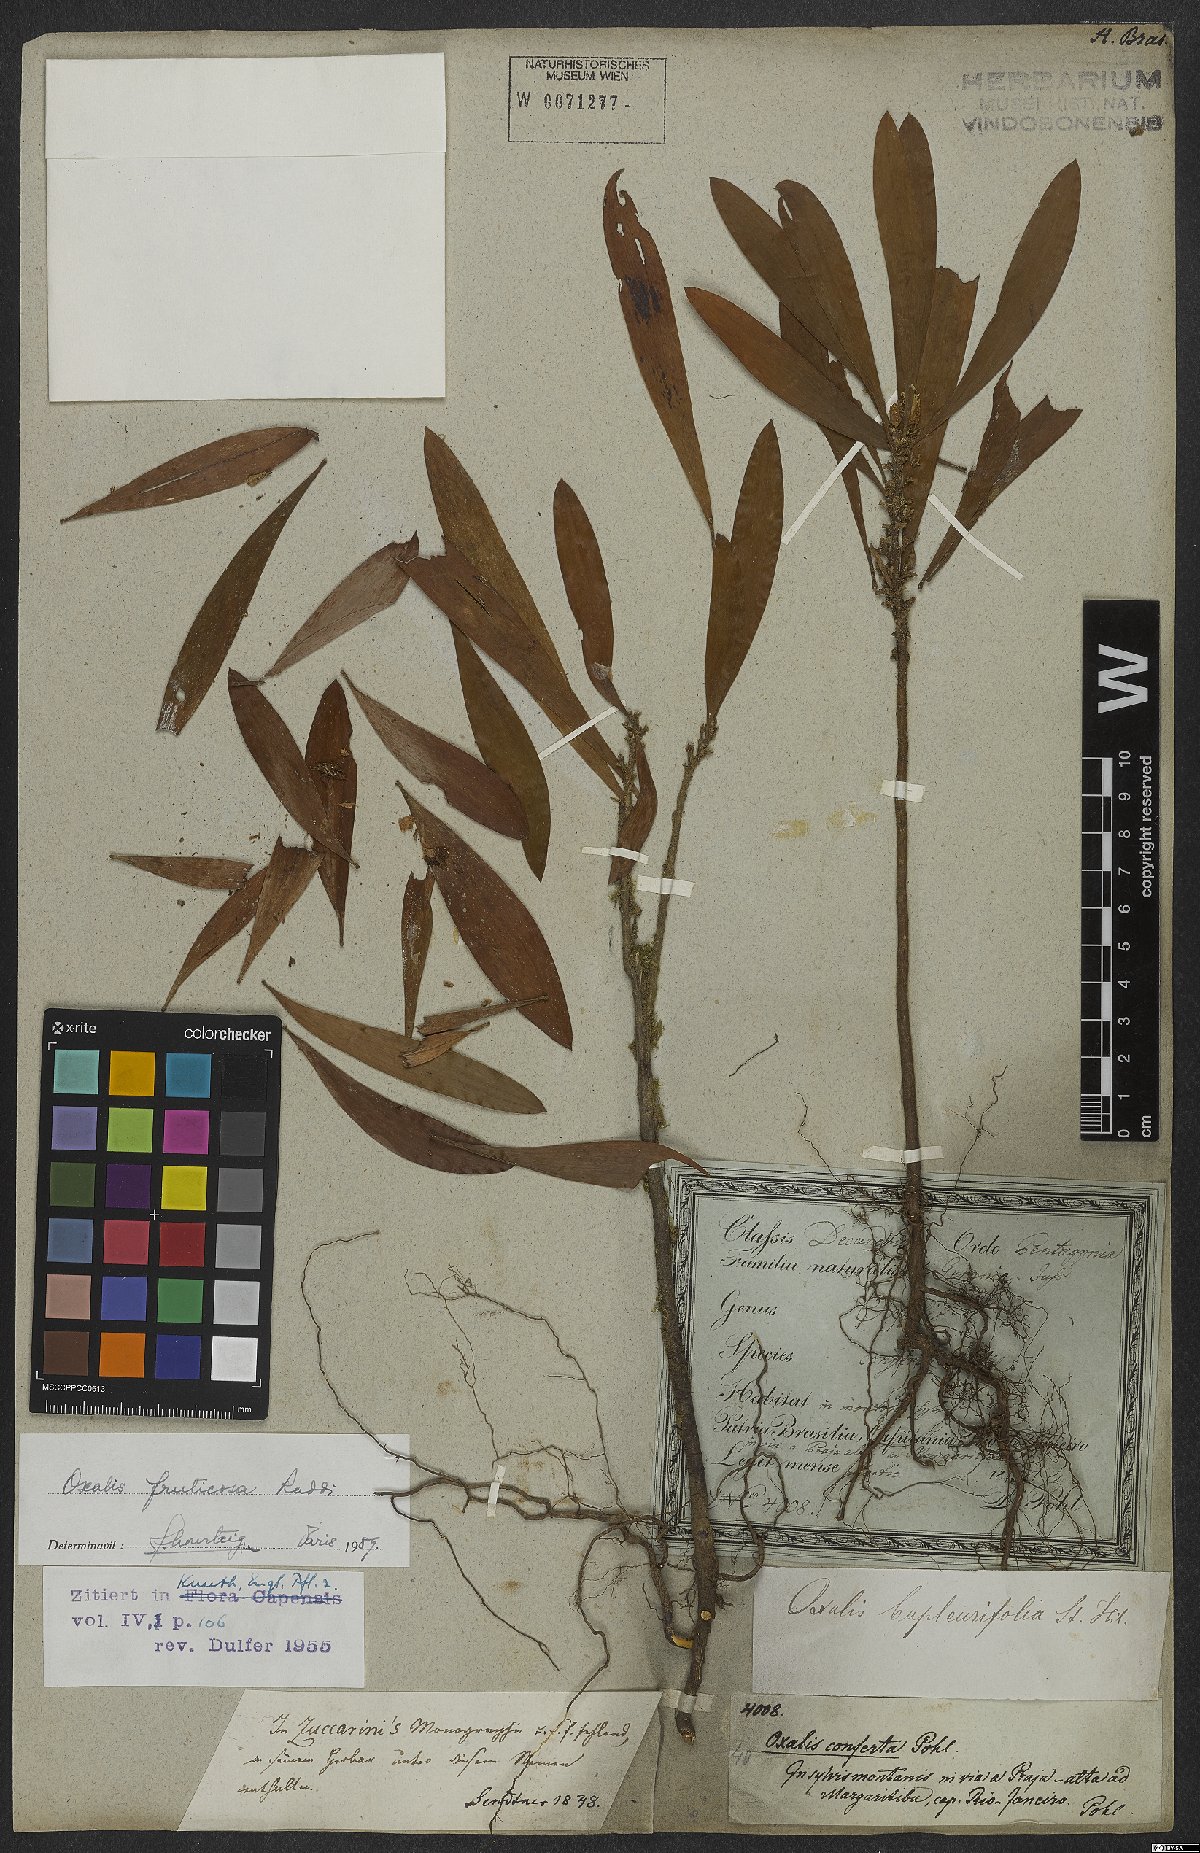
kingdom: Plantae
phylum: Tracheophyta
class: Magnoliopsida
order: Oxalidales
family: Oxalidaceae
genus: Oxalis
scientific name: Oxalis fruticosa
